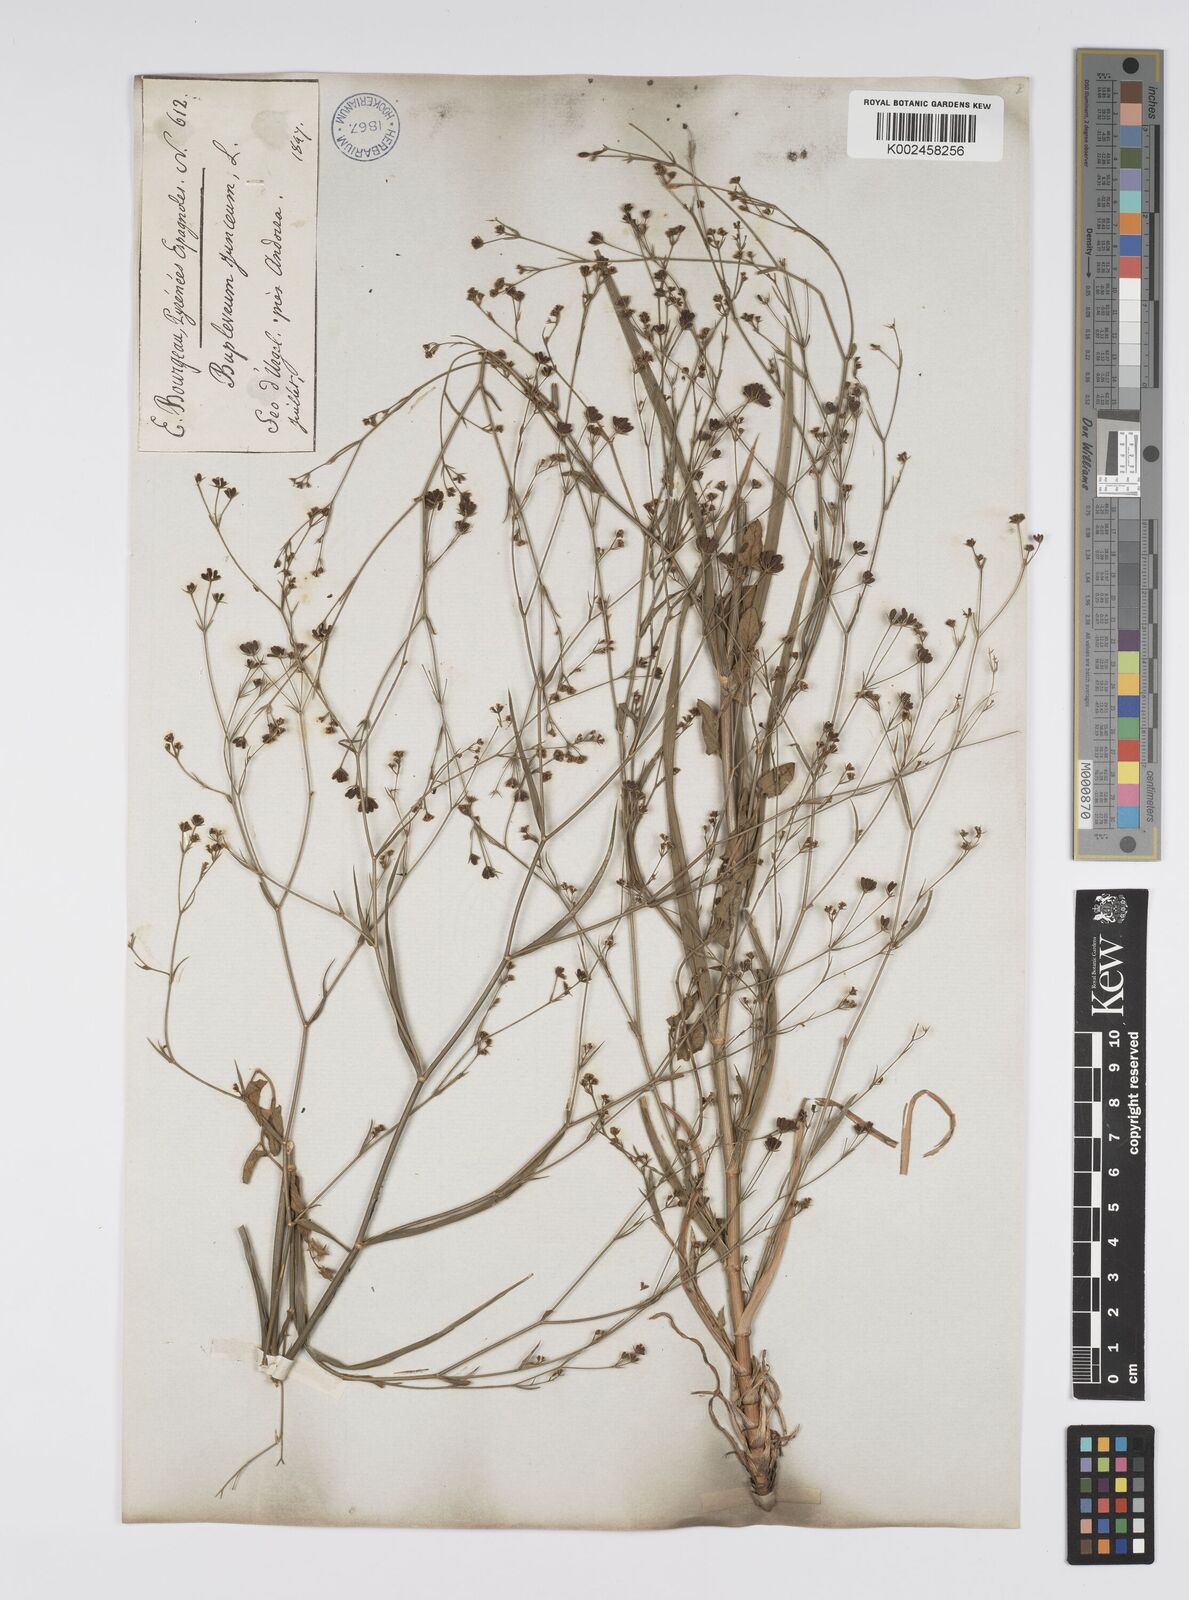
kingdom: Plantae
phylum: Tracheophyta
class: Magnoliopsida
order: Apiales
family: Apiaceae
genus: Bupleurum
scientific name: Bupleurum praealtum
